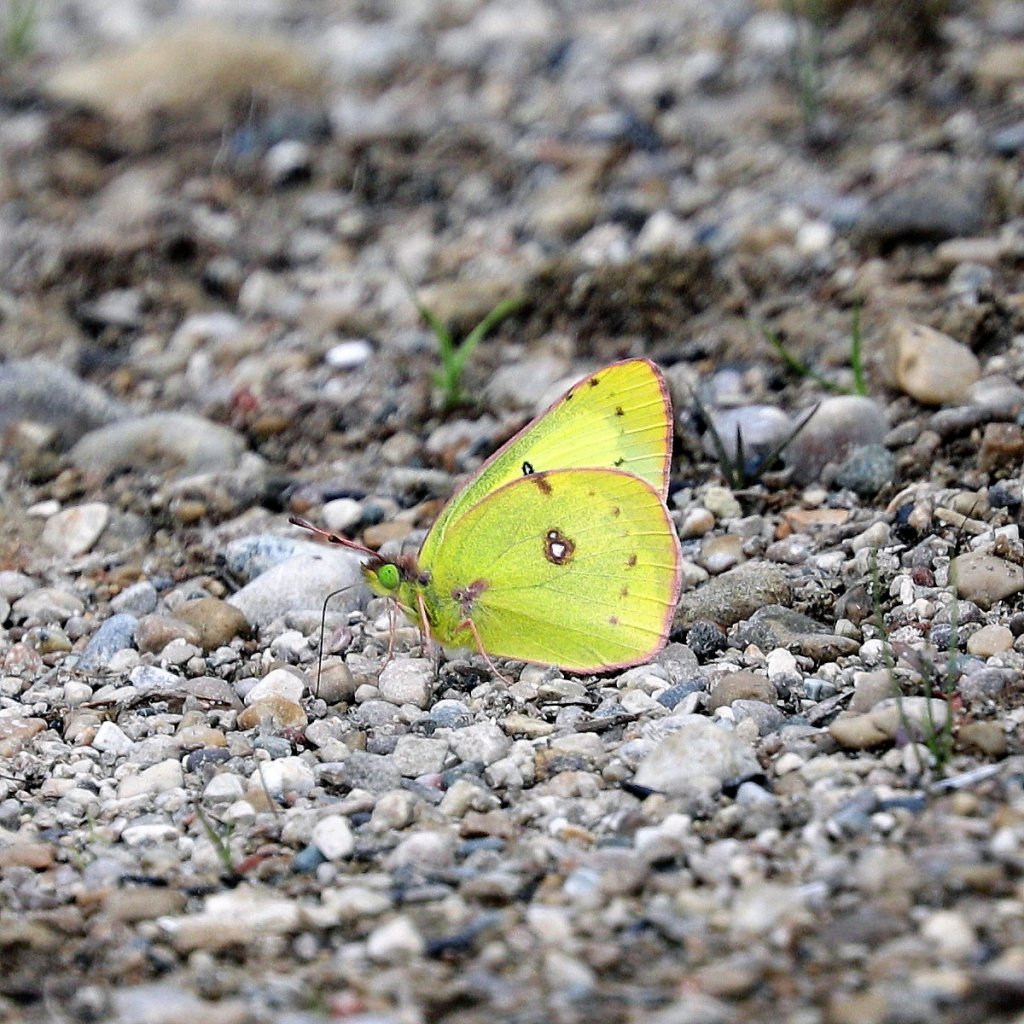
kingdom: Animalia
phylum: Arthropoda
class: Insecta
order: Lepidoptera
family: Pieridae
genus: Colias
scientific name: Colias philodice
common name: Clouded Sulphur
